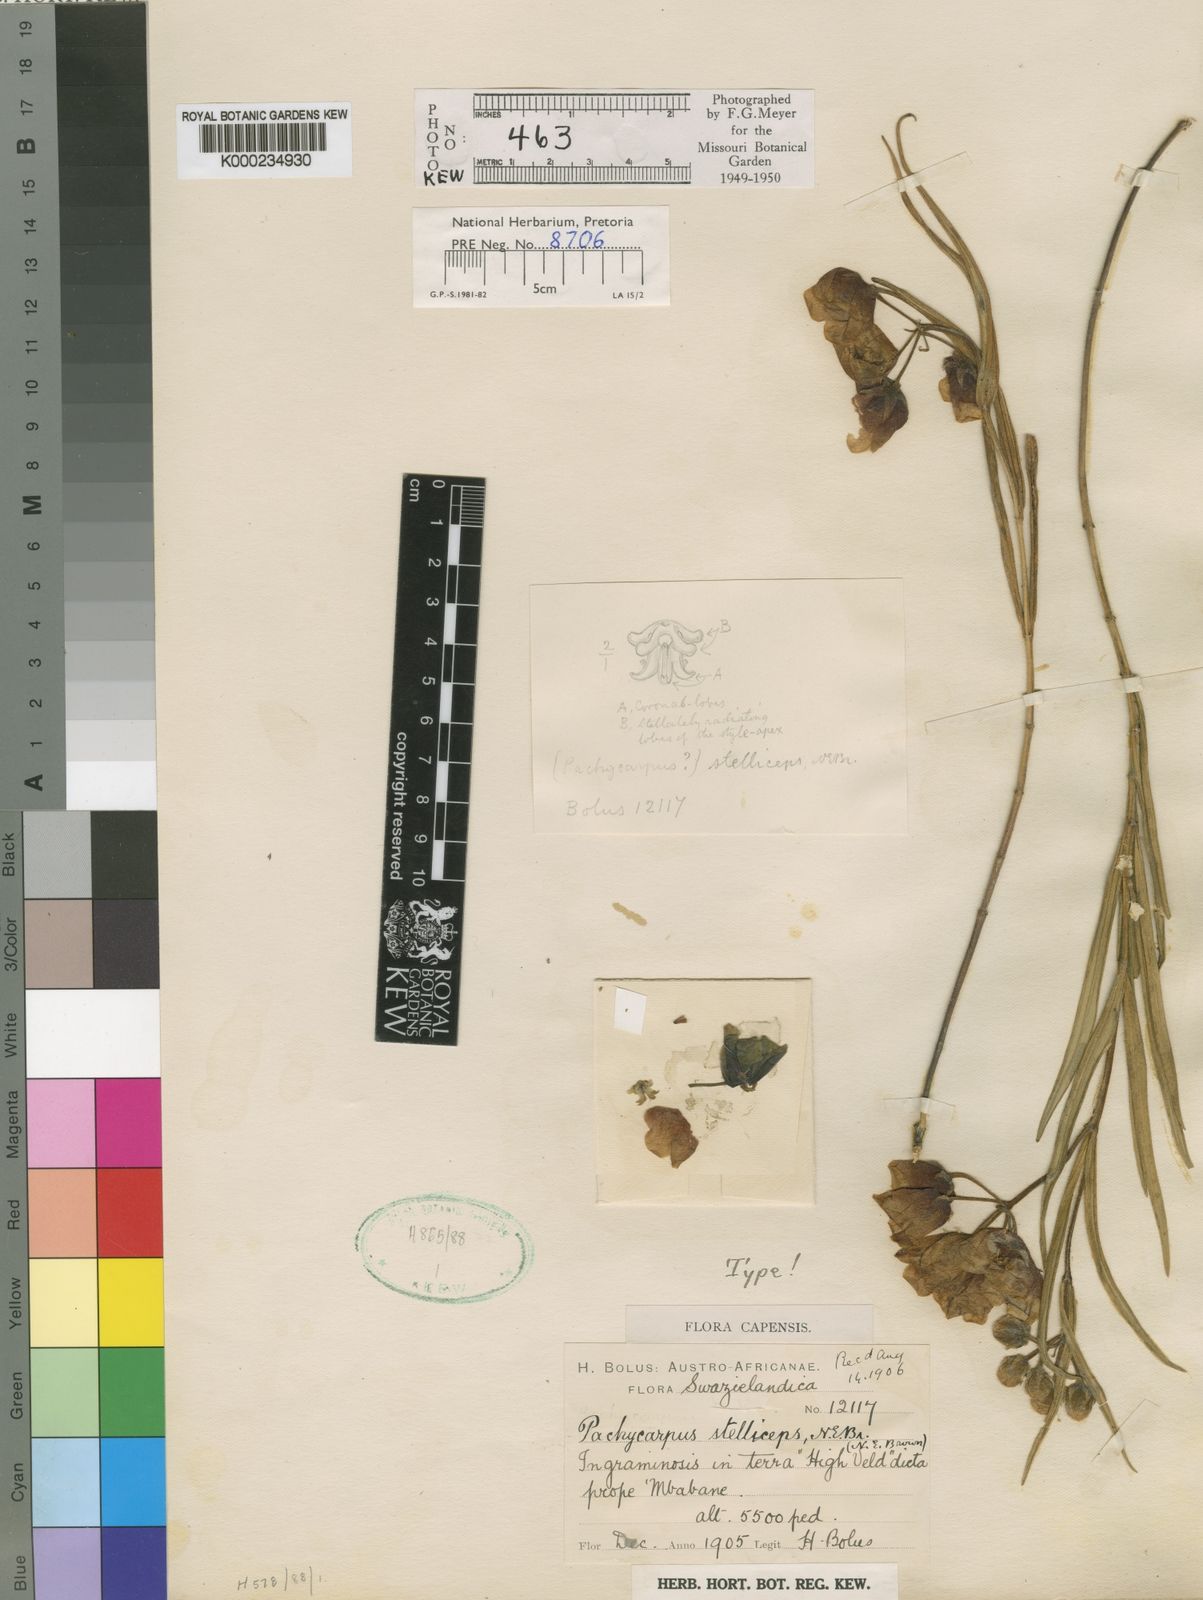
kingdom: Plantae
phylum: Tracheophyta
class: Magnoliopsida
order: Gentianales
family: Apocynaceae
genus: Pachycarpus
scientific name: Pachycarpus stelliceps
